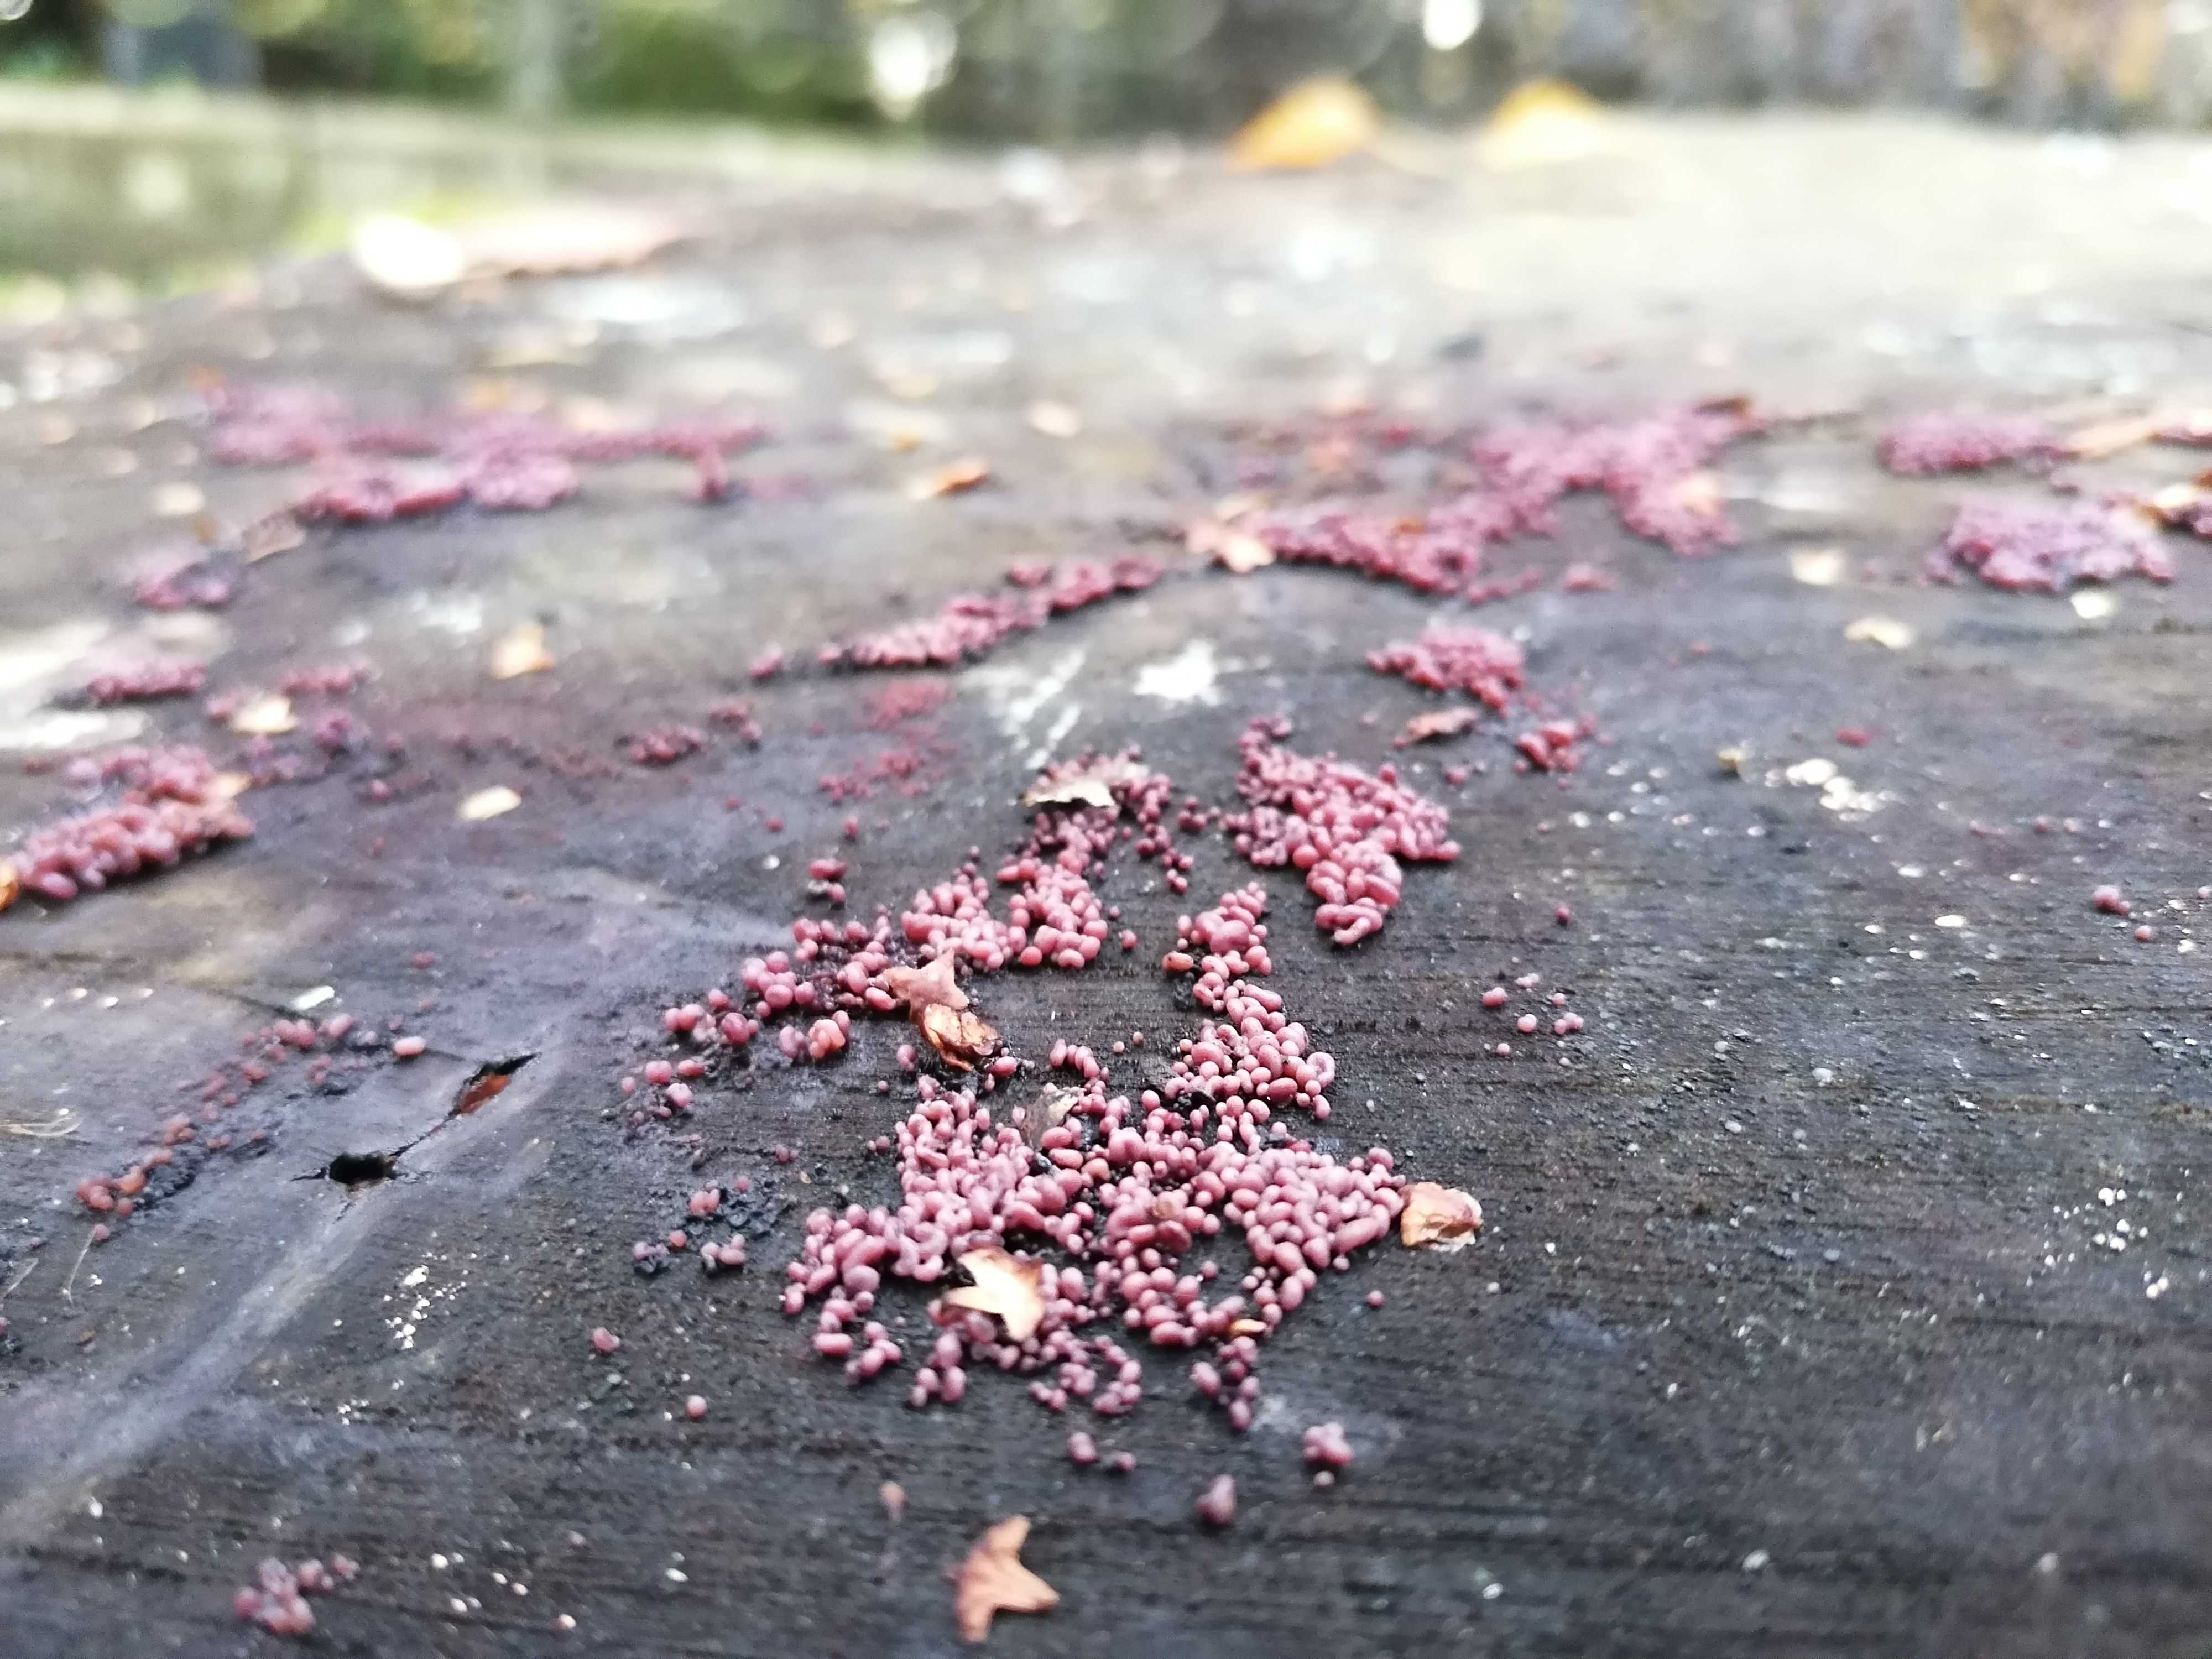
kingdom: Fungi
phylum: Ascomycota
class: Leotiomycetes
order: Helotiales
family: Gelatinodiscaceae
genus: Ascocoryne
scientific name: Ascocoryne sarcoides
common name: rødlilla sejskive
